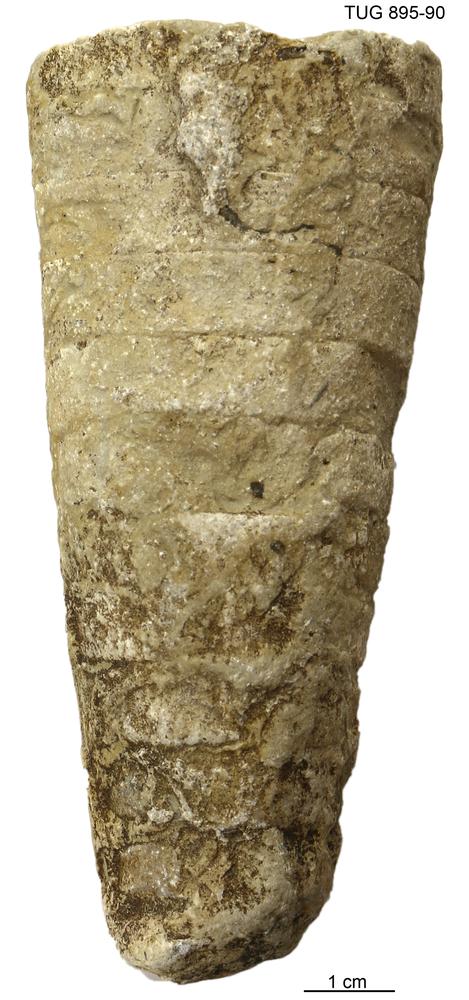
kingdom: Animalia
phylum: Mollusca
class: Cephalopoda
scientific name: Cephalopoda
